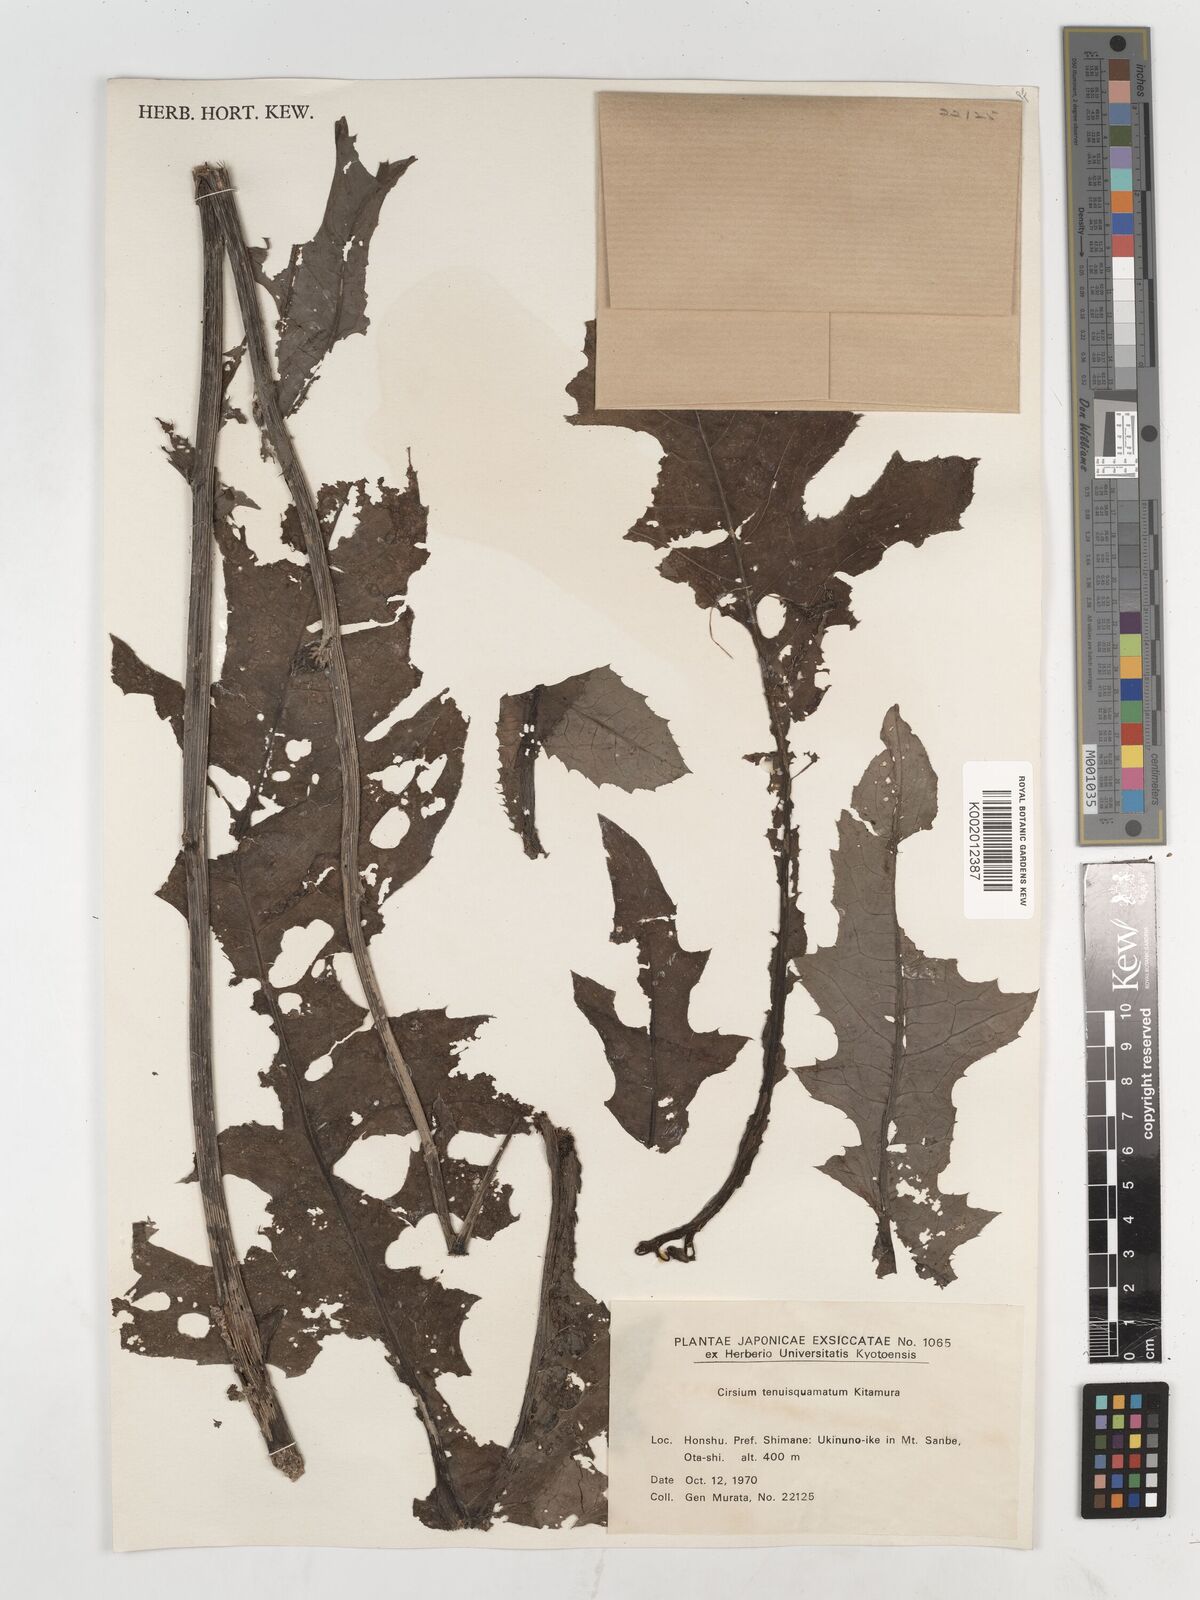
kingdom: Plantae
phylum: Tracheophyta
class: Magnoliopsida
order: Asterales
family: Asteraceae
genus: Cirsium
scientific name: Cirsium tenuisquamatum
